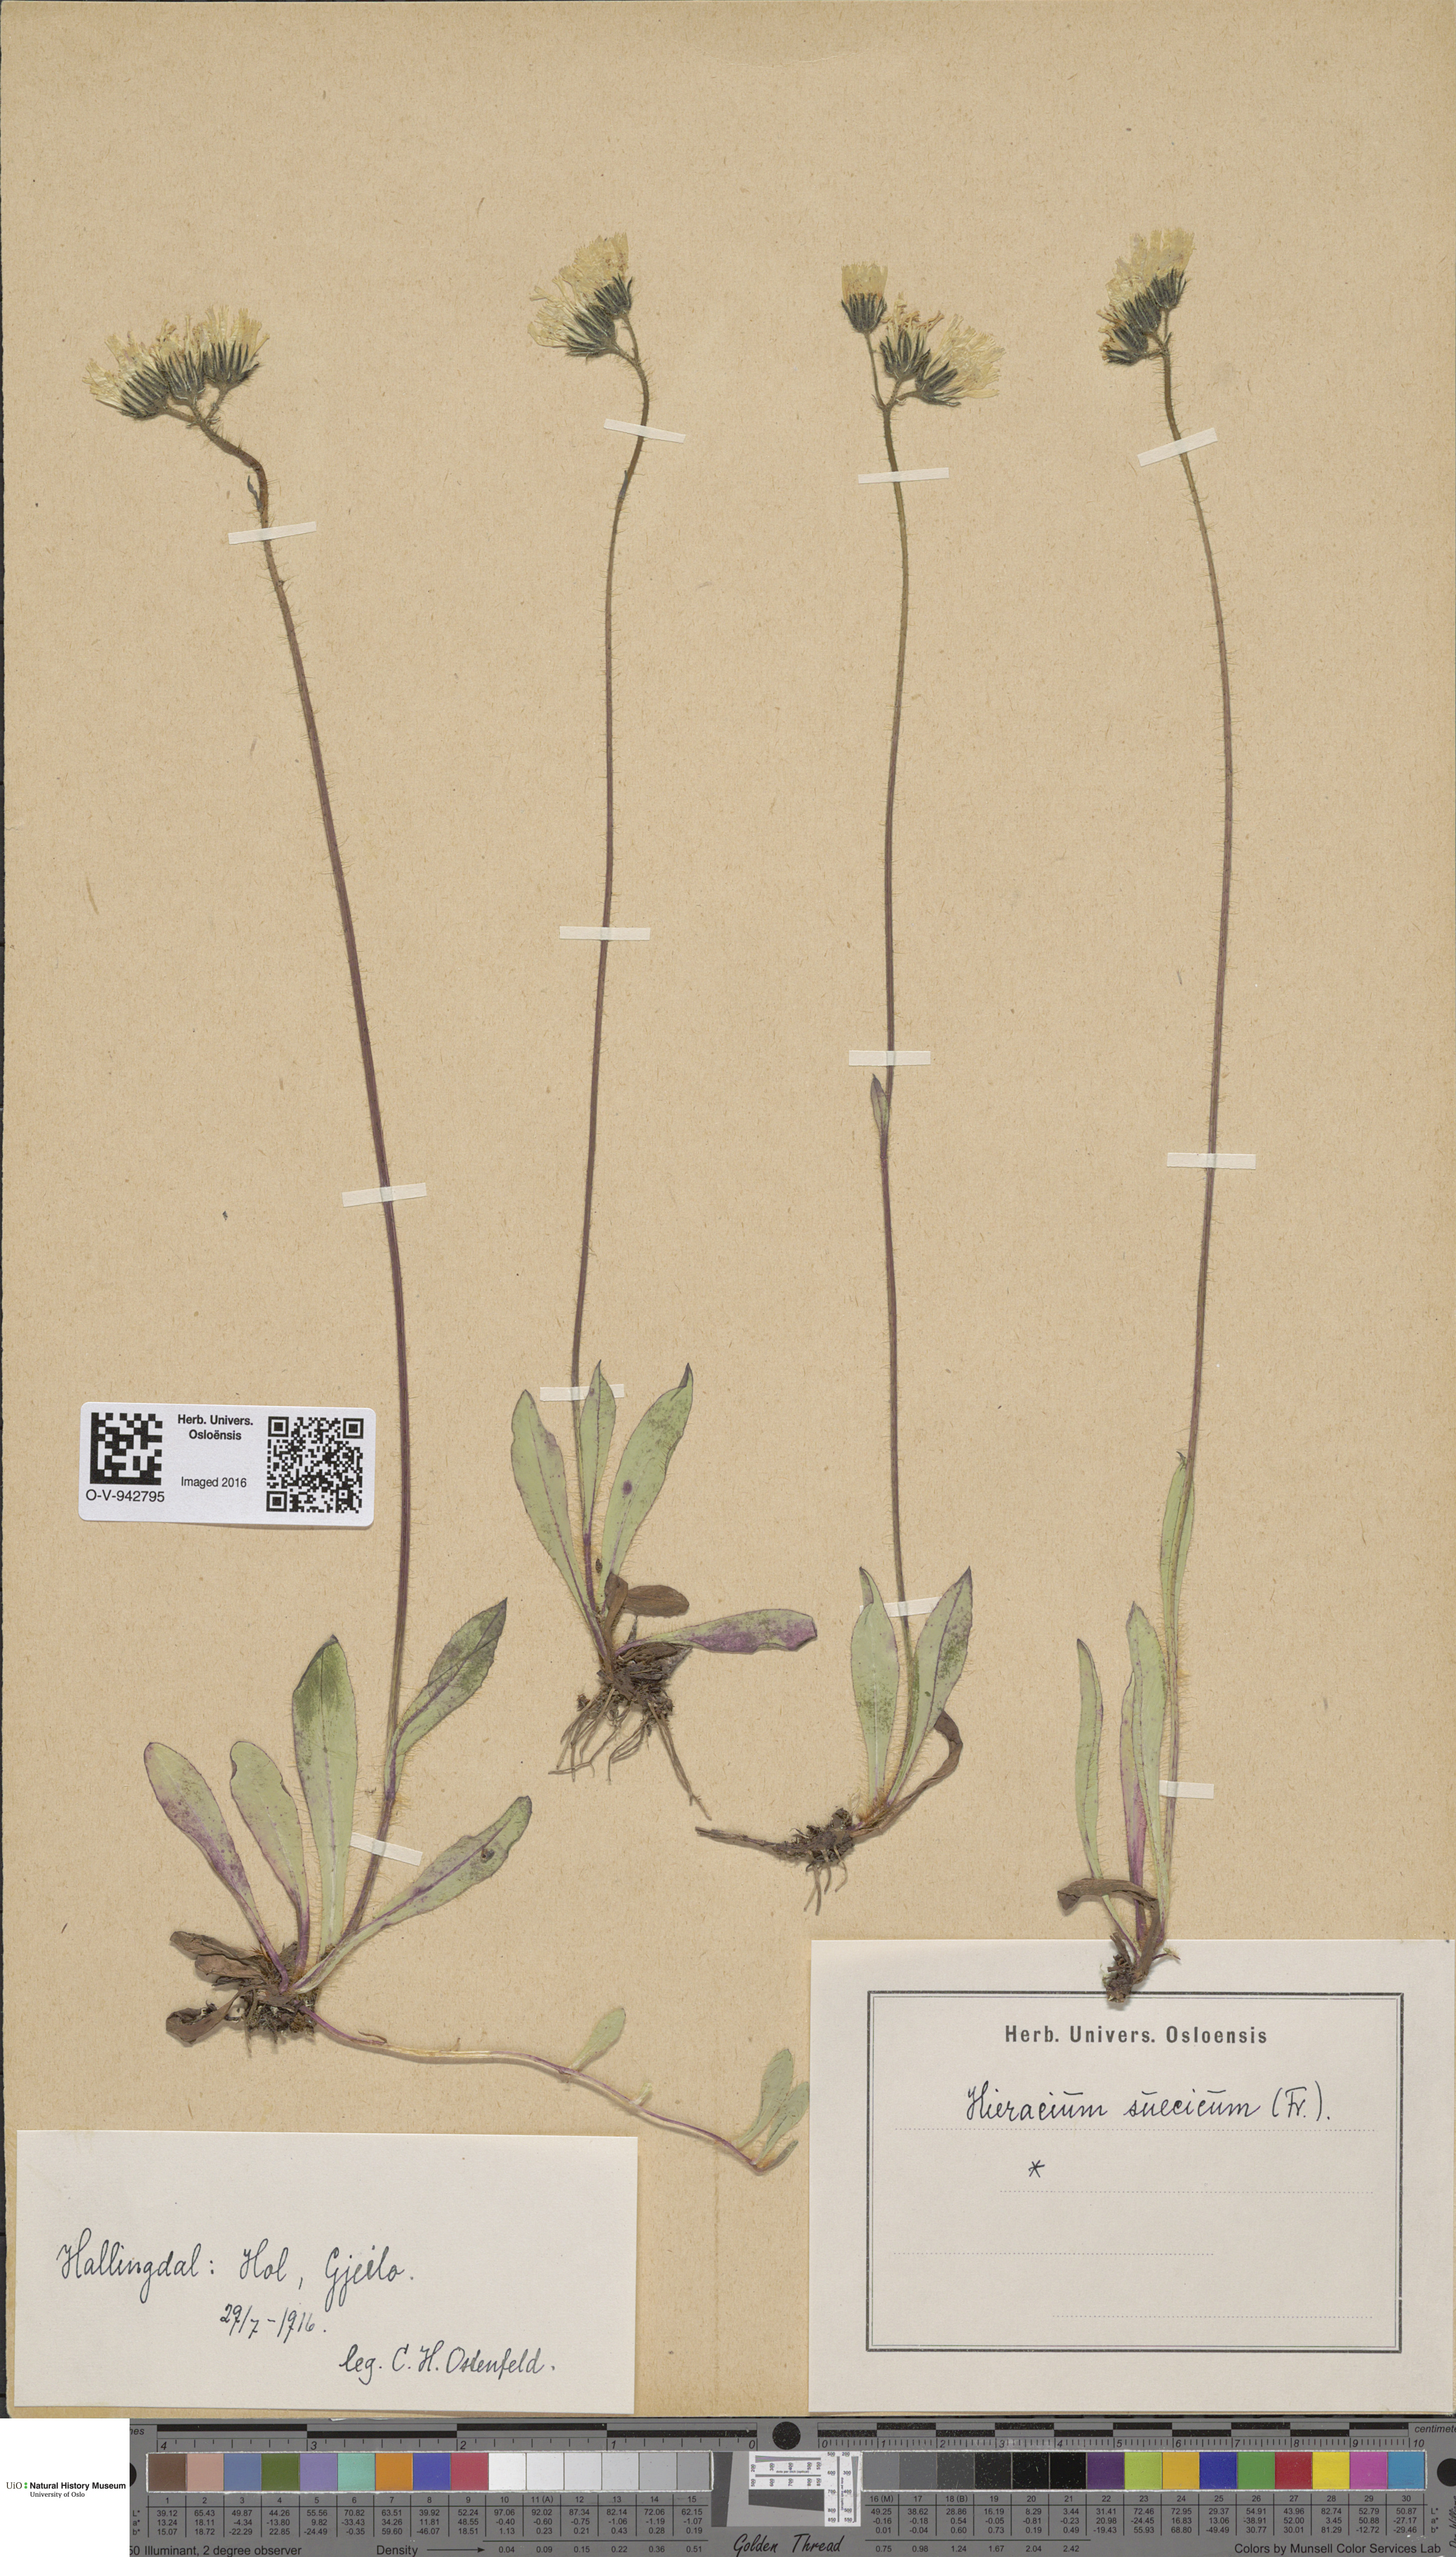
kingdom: Plantae
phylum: Tracheophyta
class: Magnoliopsida
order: Asterales
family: Asteraceae
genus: Pilosella
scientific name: Pilosella dubia
